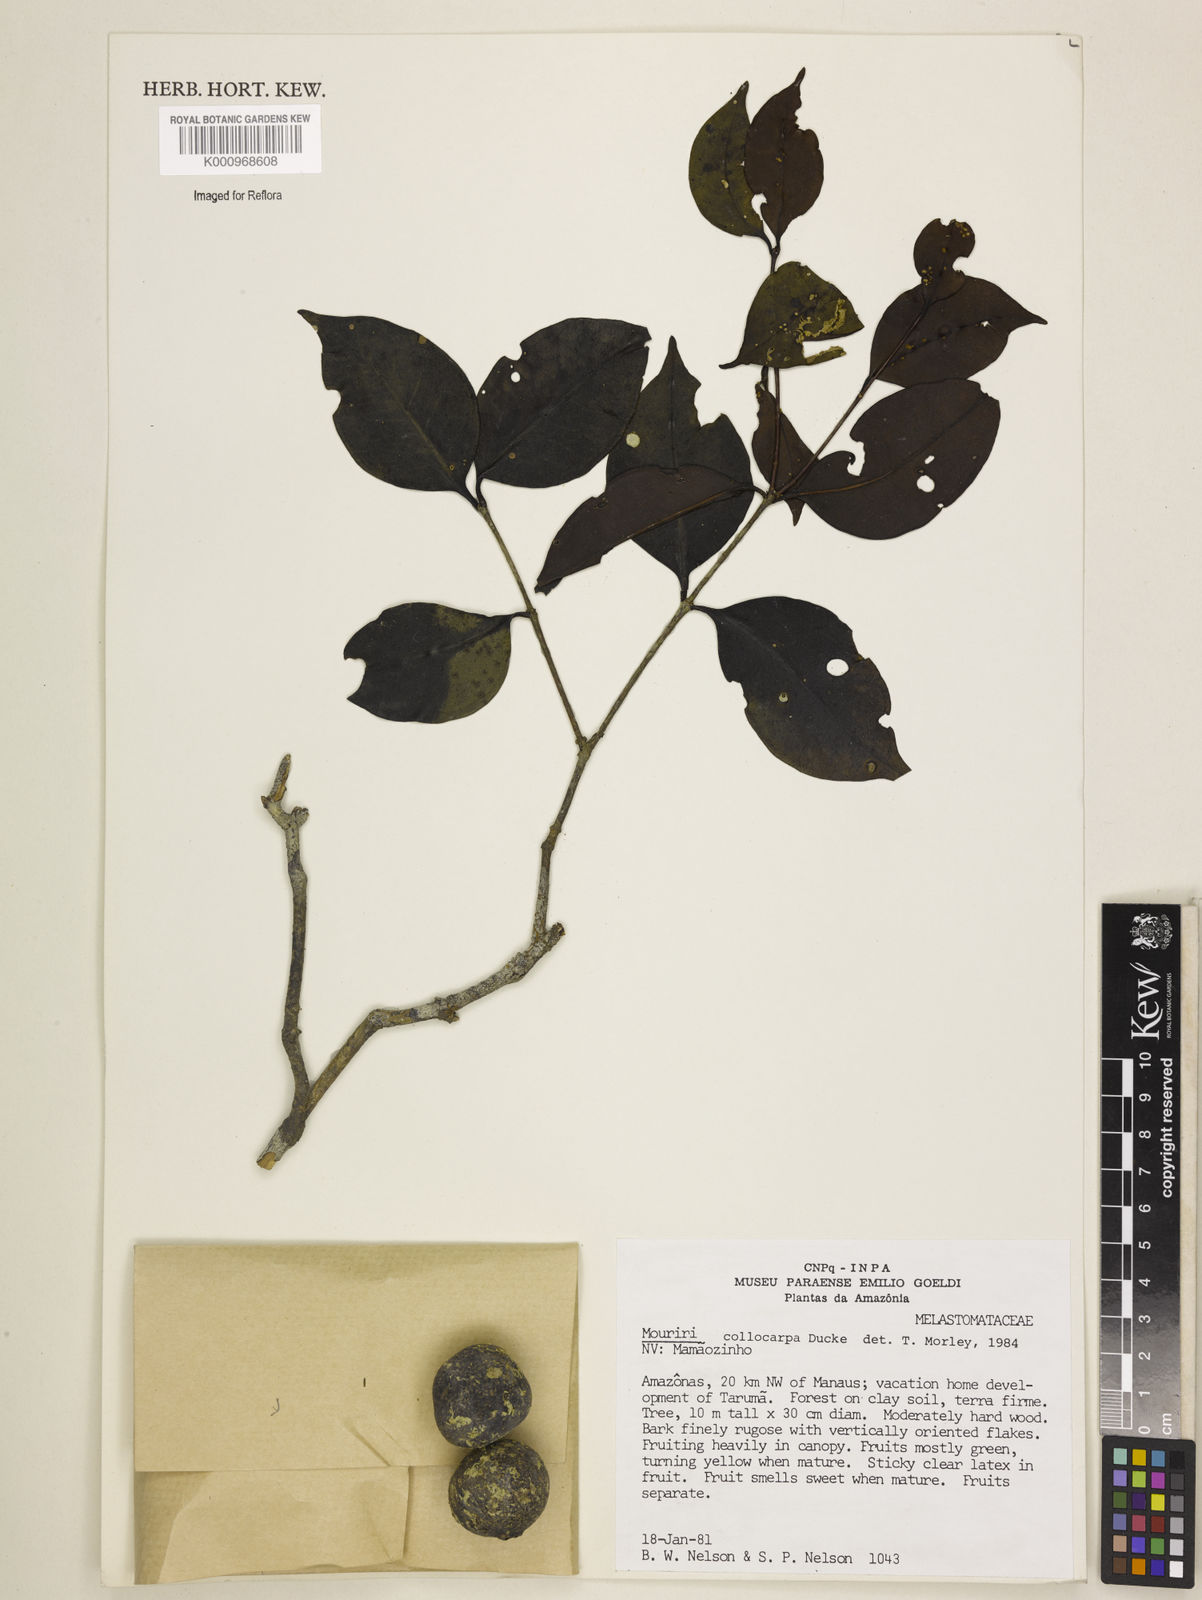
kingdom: Plantae
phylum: Tracheophyta
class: Magnoliopsida
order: Myrtales
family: Melastomataceae
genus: Mouriri
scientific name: Mouriri collocarpa
